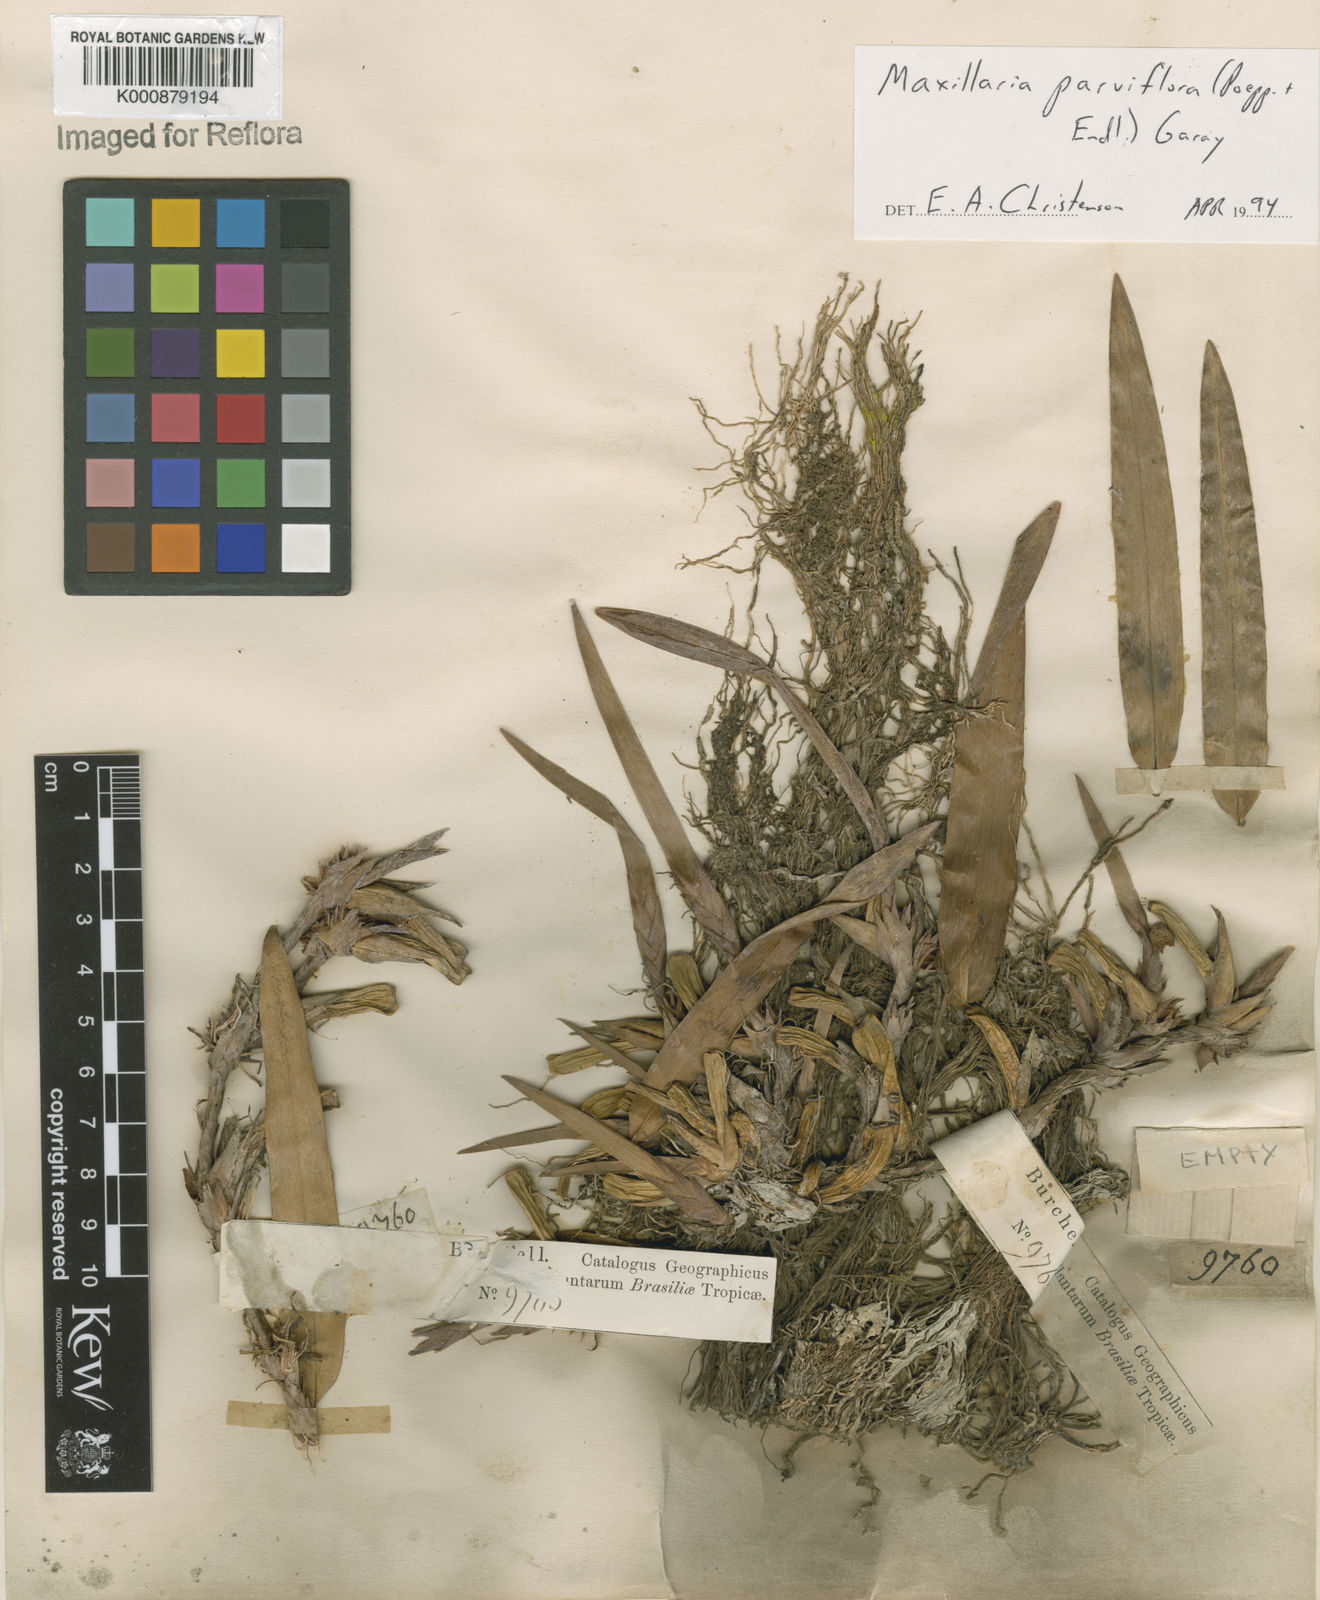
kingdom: Plantae
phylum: Tracheophyta
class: Liliopsida
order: Asparagales
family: Orchidaceae
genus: Maxillaria
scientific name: Maxillaria parviflora
